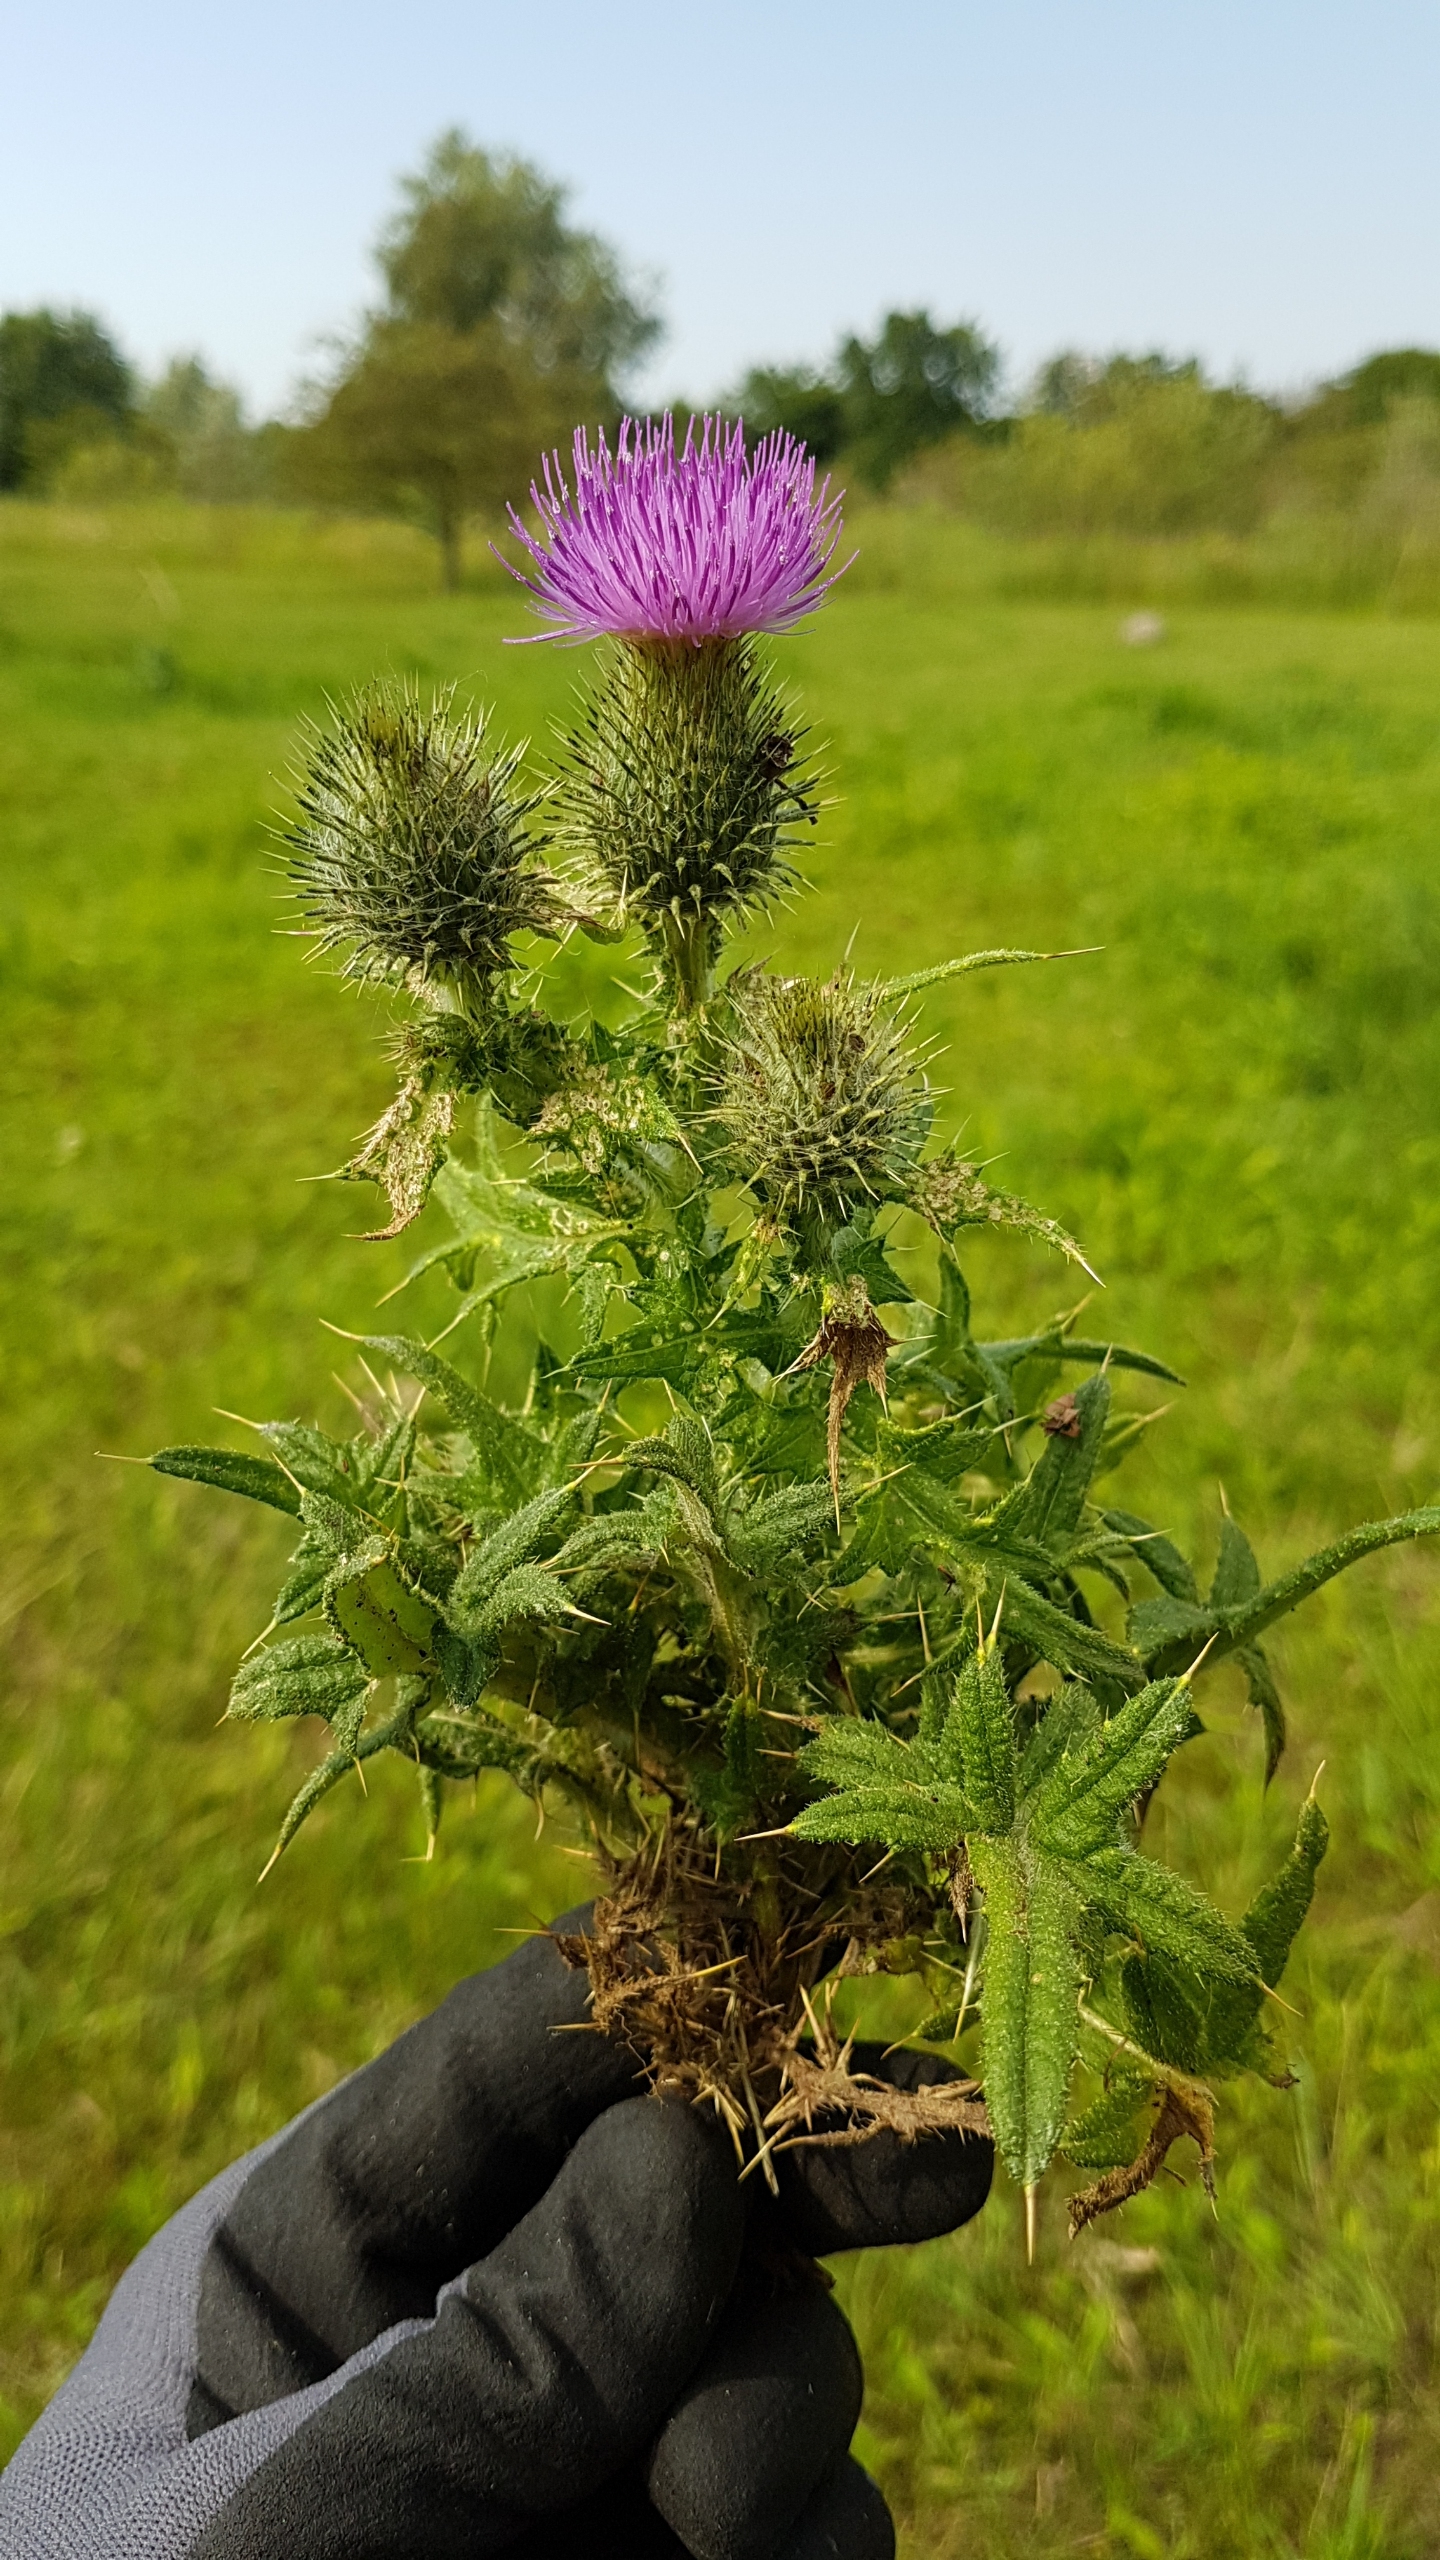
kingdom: Plantae
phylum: Tracheophyta
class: Magnoliopsida
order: Asterales
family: Asteraceae
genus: Cirsium
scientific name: Cirsium vulgare
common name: Horse-tidsel
